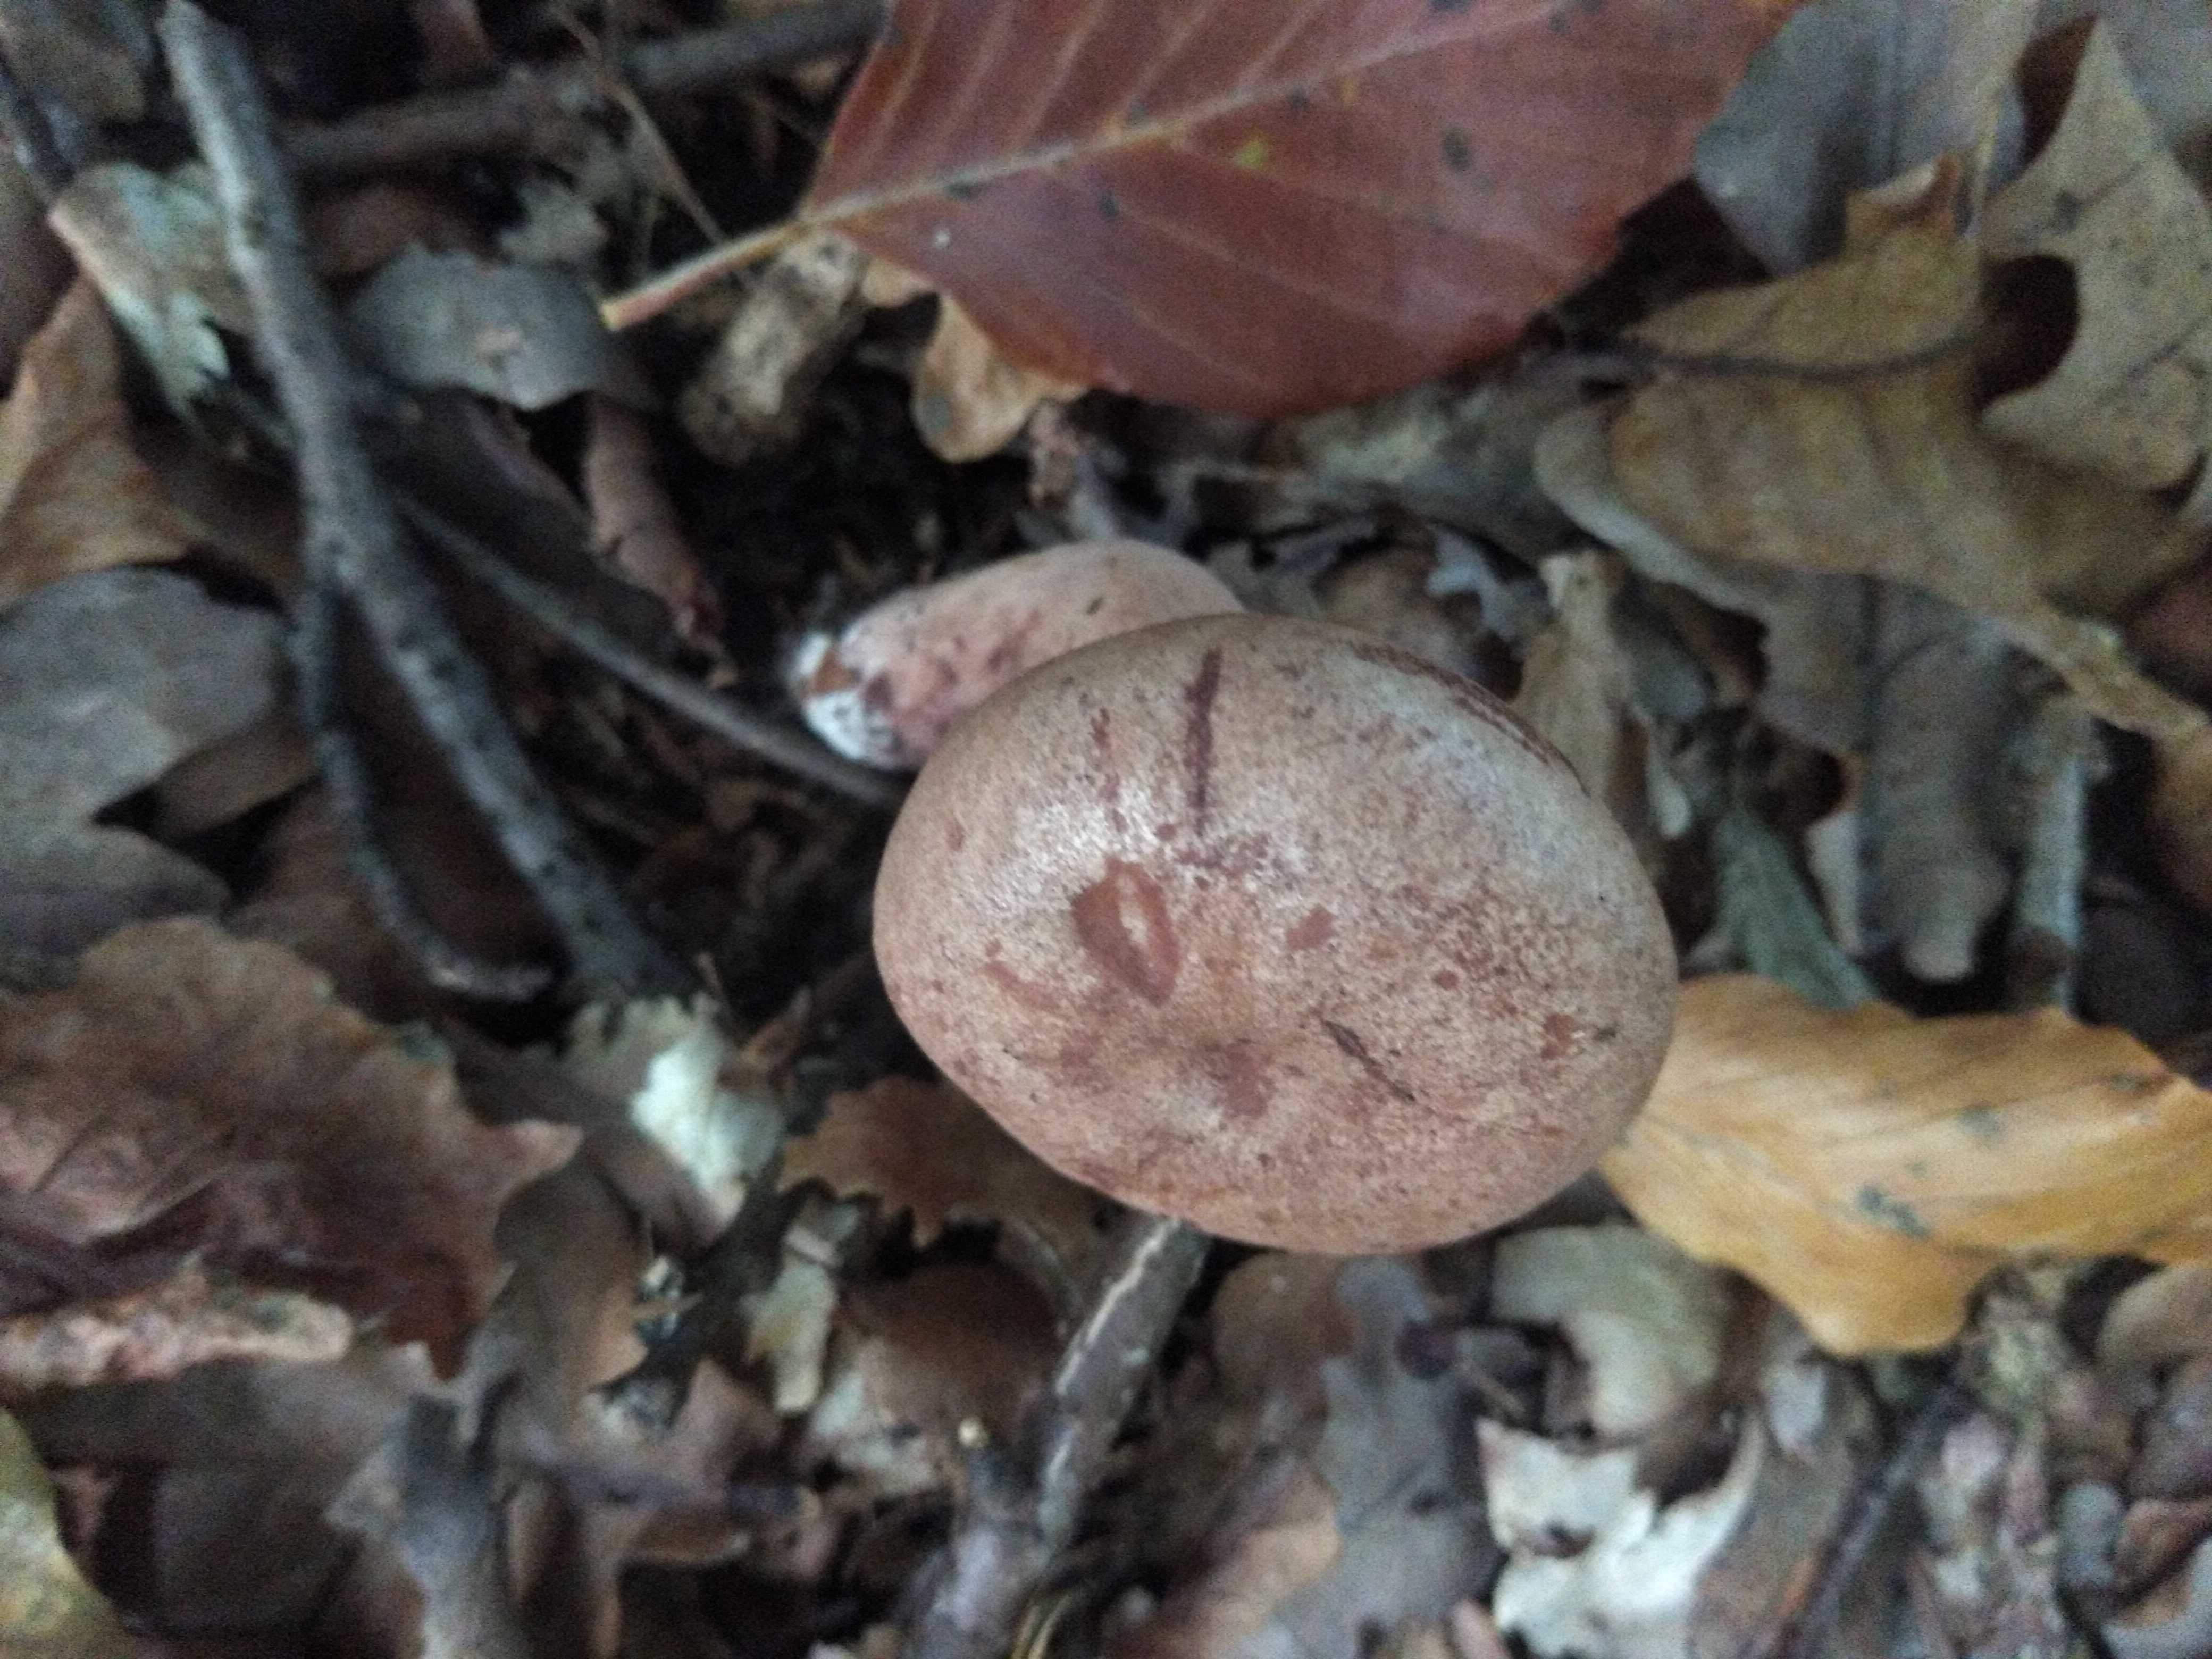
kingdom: Fungi
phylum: Basidiomycota
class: Agaricomycetes
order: Russulales
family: Russulaceae
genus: Lactarius
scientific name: Lactarius quietus
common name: ege-mælkehat
